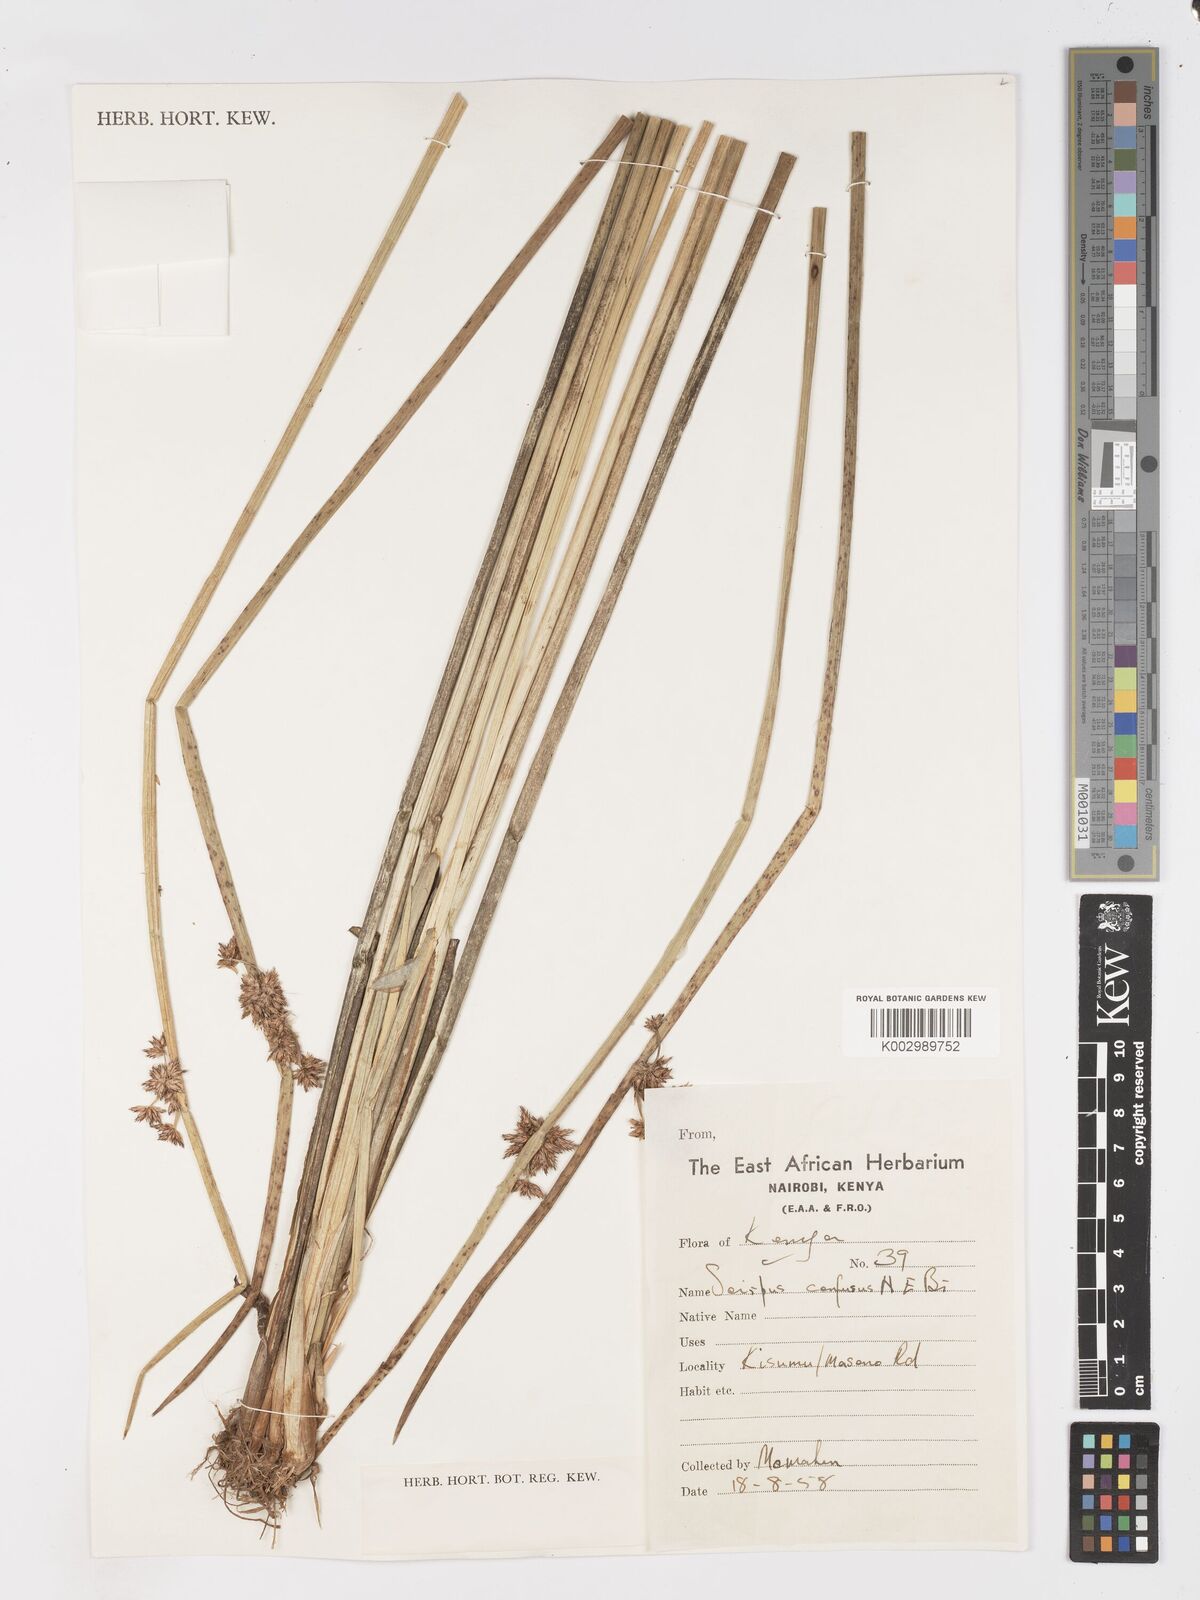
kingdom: Plantae
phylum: Tracheophyta
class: Liliopsida
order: Poales
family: Cyperaceae
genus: Schoenoplectiella
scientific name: Schoenoplectiella confusa
